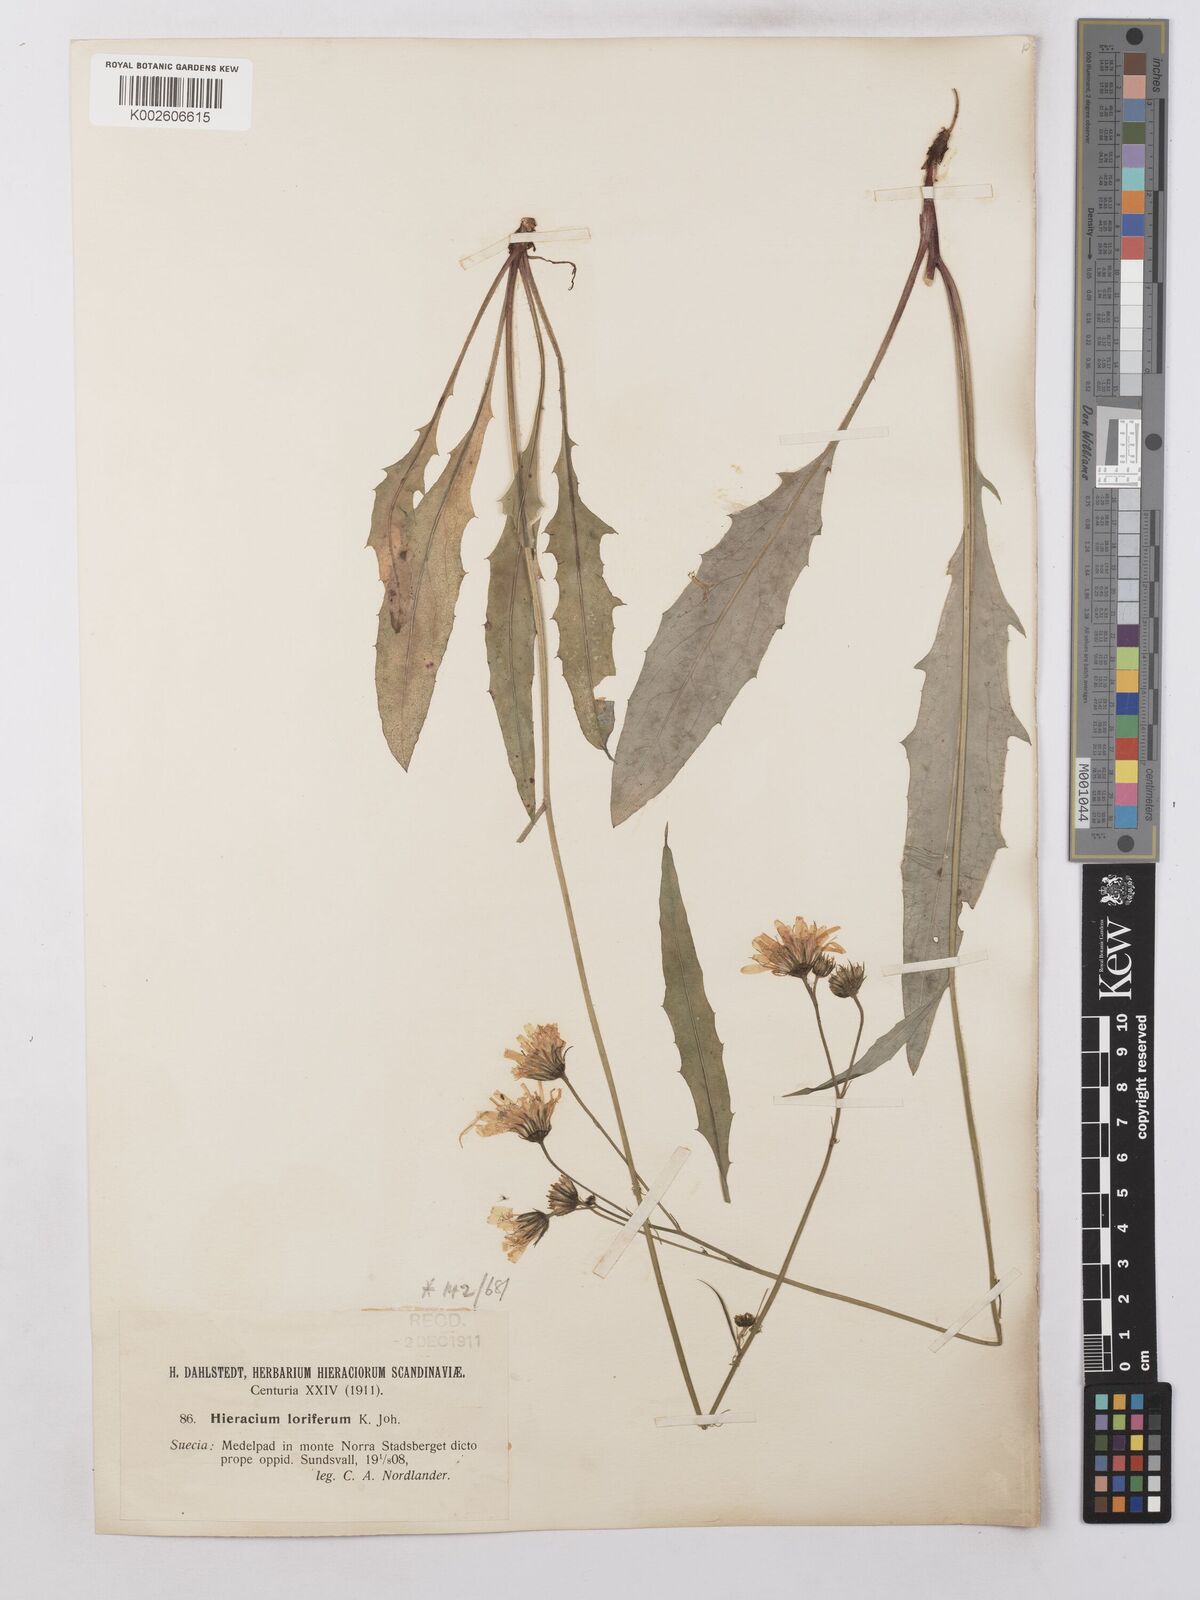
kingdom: Plantae
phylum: Tracheophyta
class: Magnoliopsida
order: Asterales
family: Asteraceae
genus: Hieracium
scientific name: Hieracium lachenalii
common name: Common hawkweed
